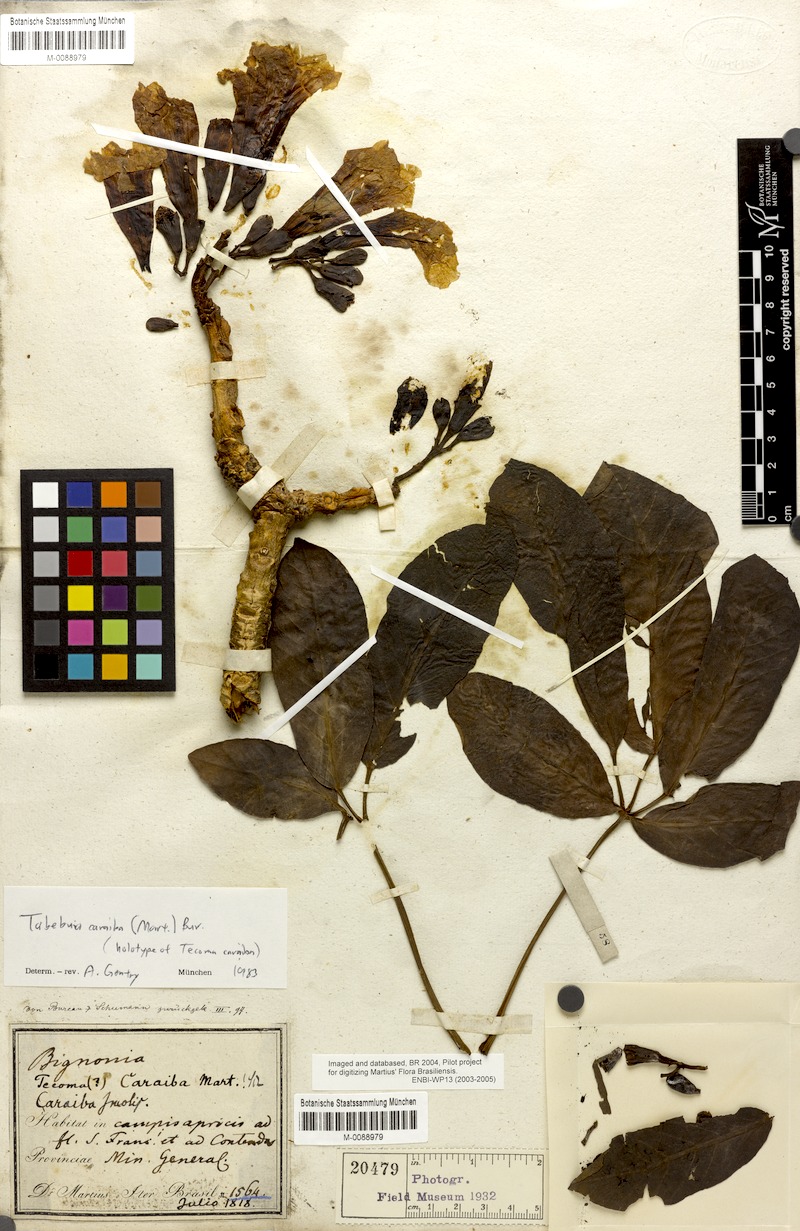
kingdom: Plantae
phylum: Tracheophyta
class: Magnoliopsida
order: Lamiales
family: Bignoniaceae
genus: Tabebuia
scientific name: Tabebuia aurea
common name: Caribbean trumpet-tree
